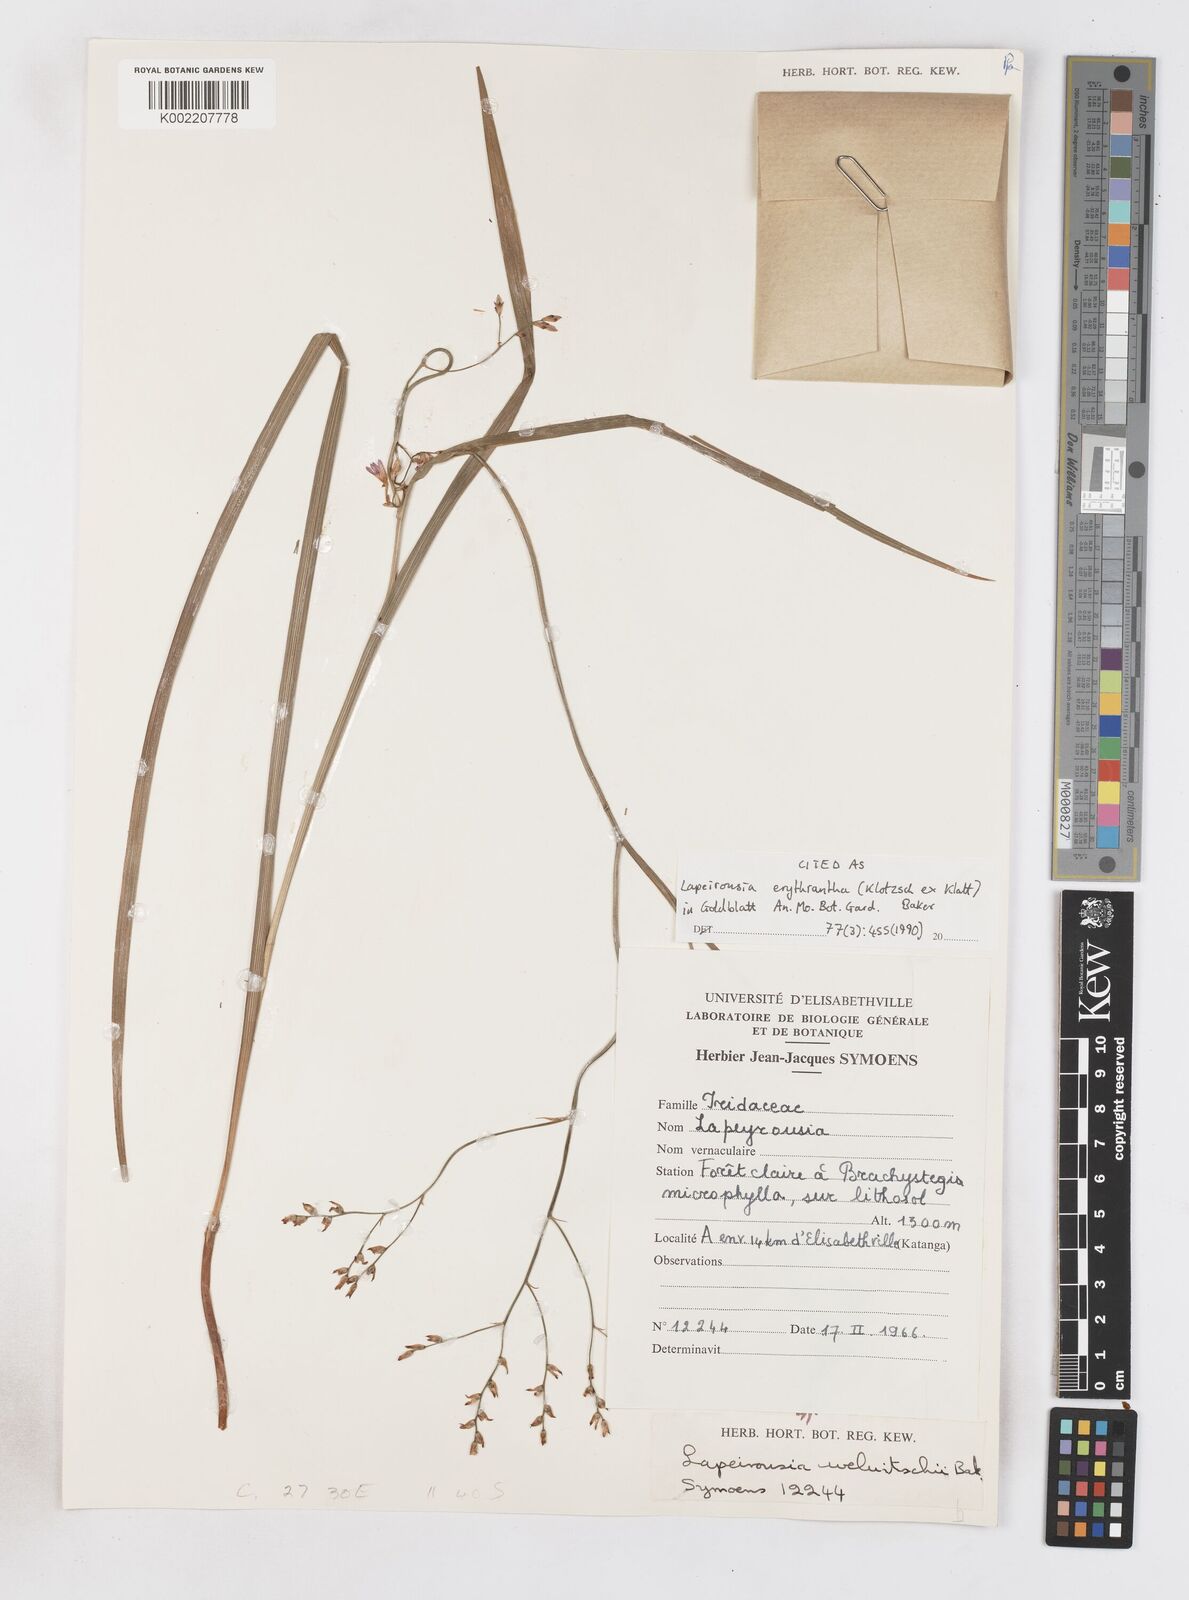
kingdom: Plantae
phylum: Tracheophyta
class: Liliopsida
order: Asparagales
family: Iridaceae
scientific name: Iridaceae
